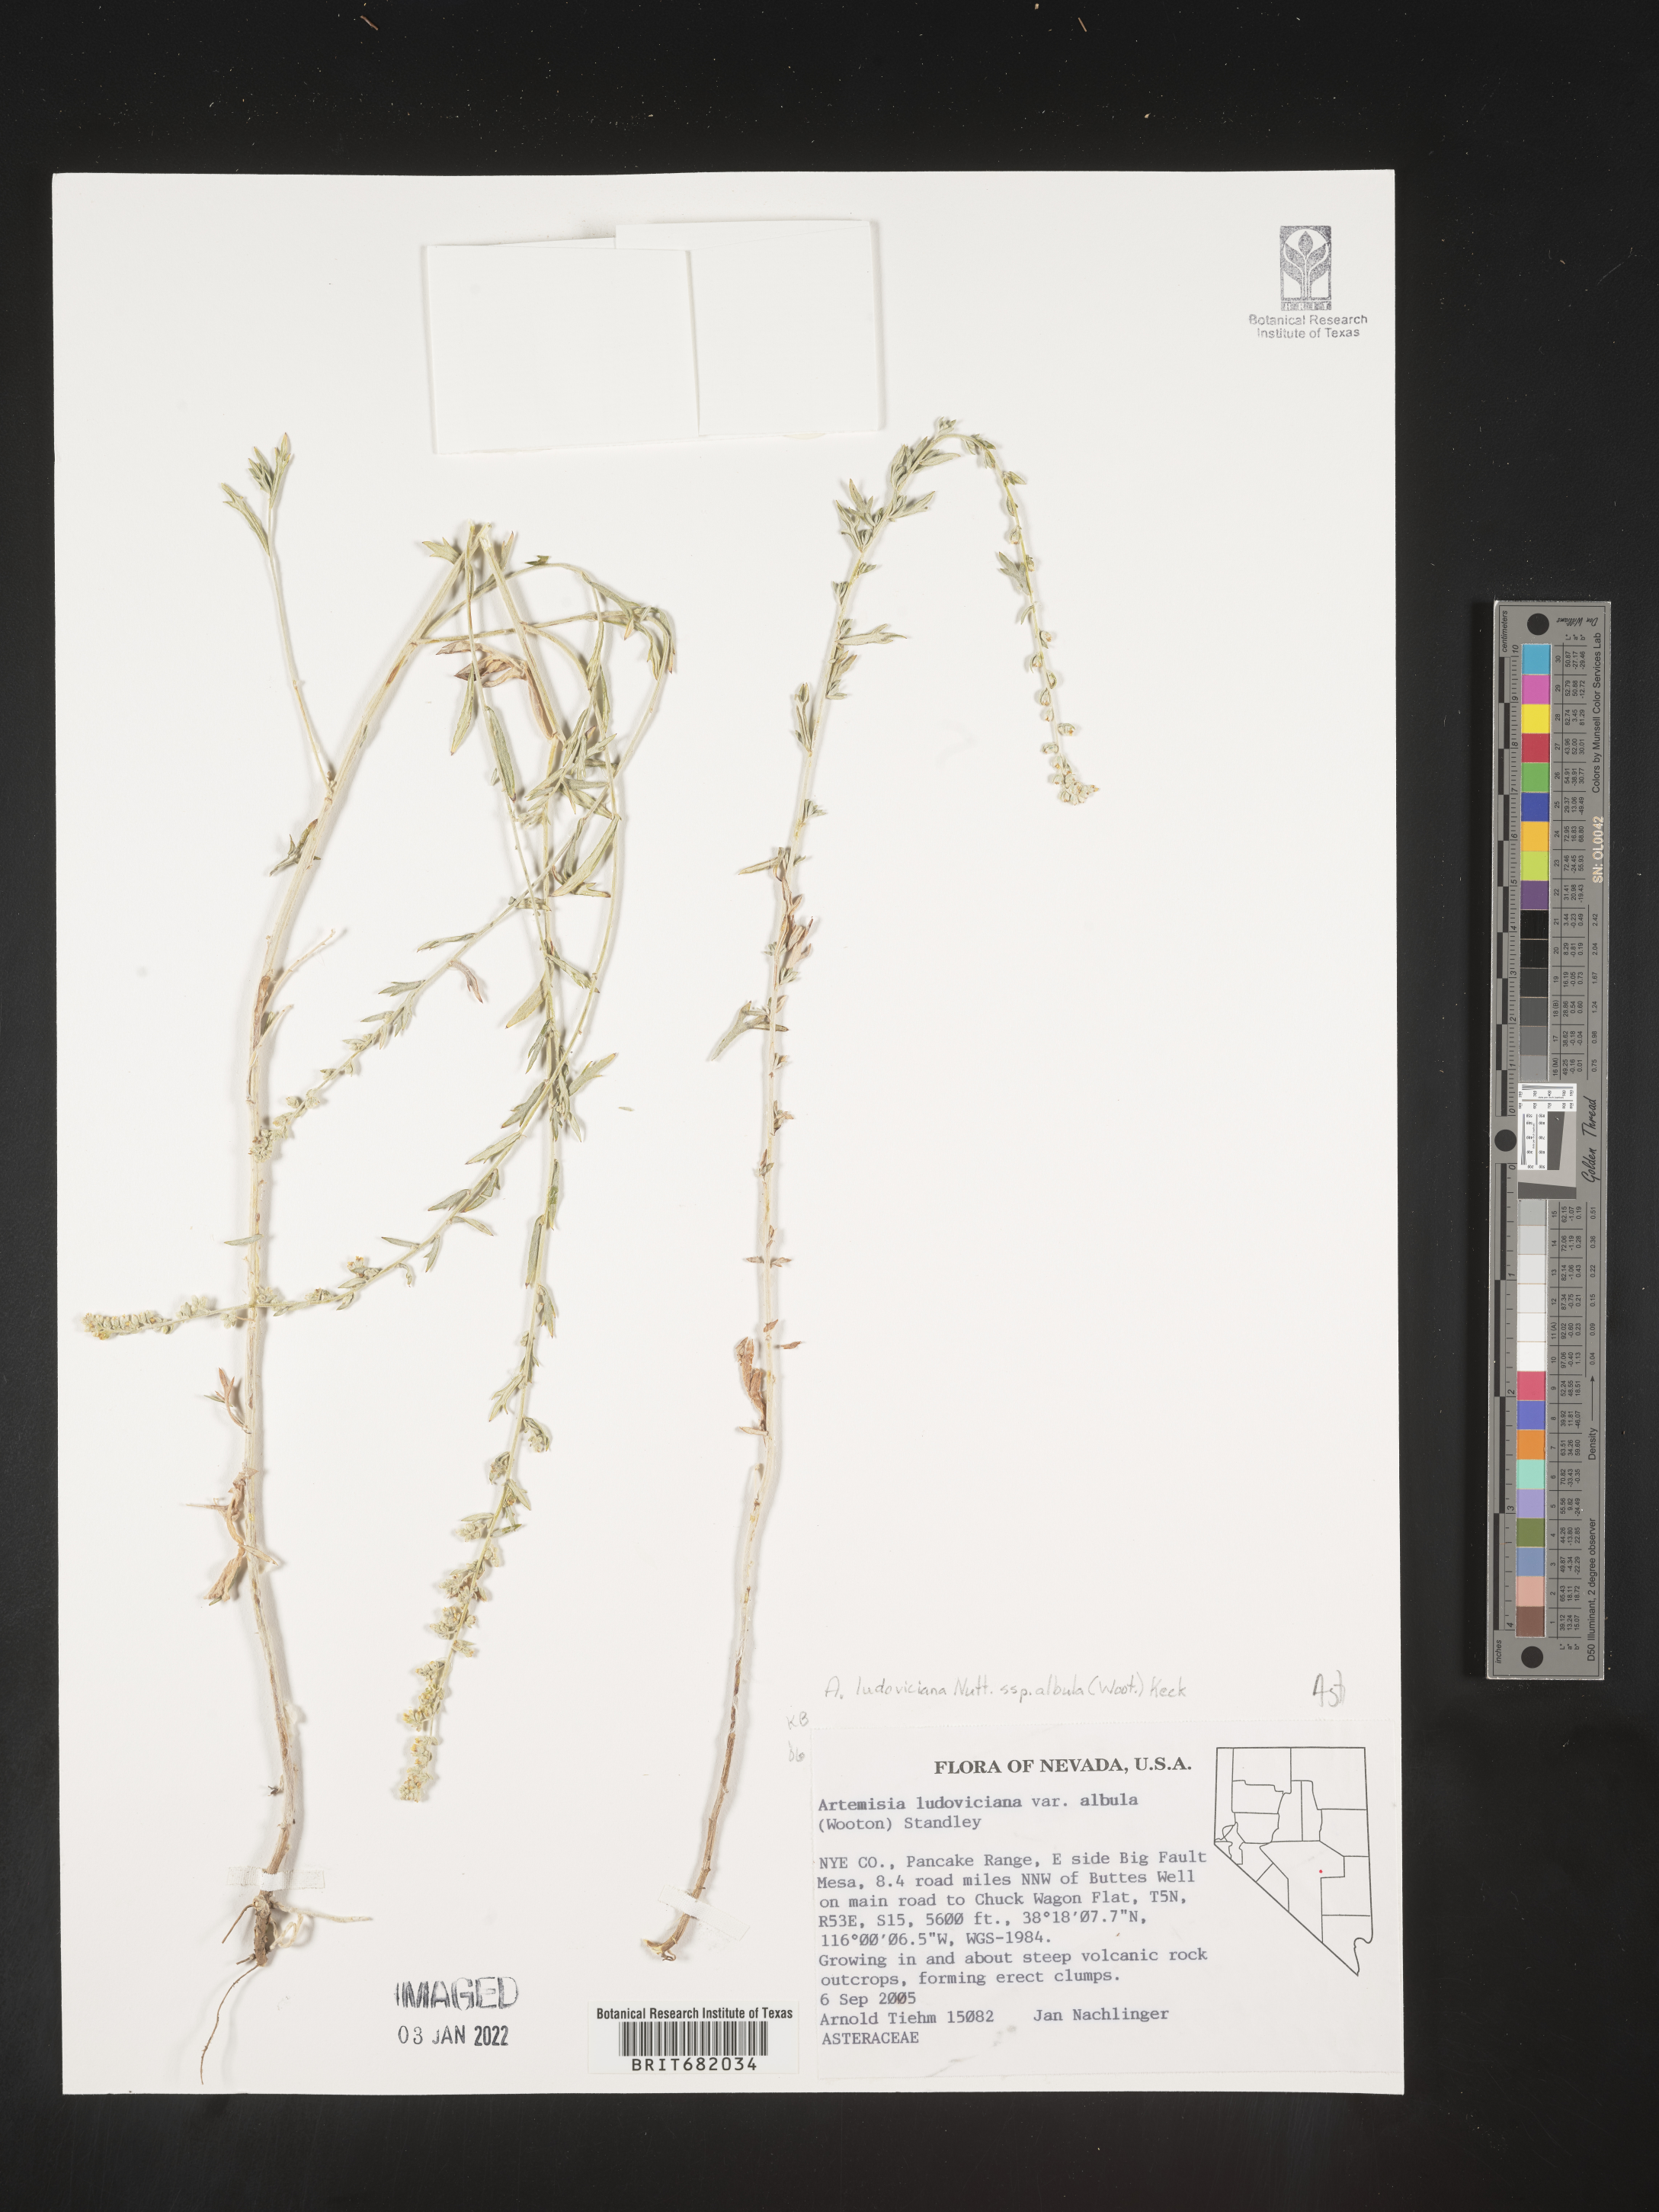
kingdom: Plantae
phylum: Tracheophyta
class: Magnoliopsida
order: Asterales
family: Asteraceae
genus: Artemisia
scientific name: Artemisia ludoviciana
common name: Western mugwort
